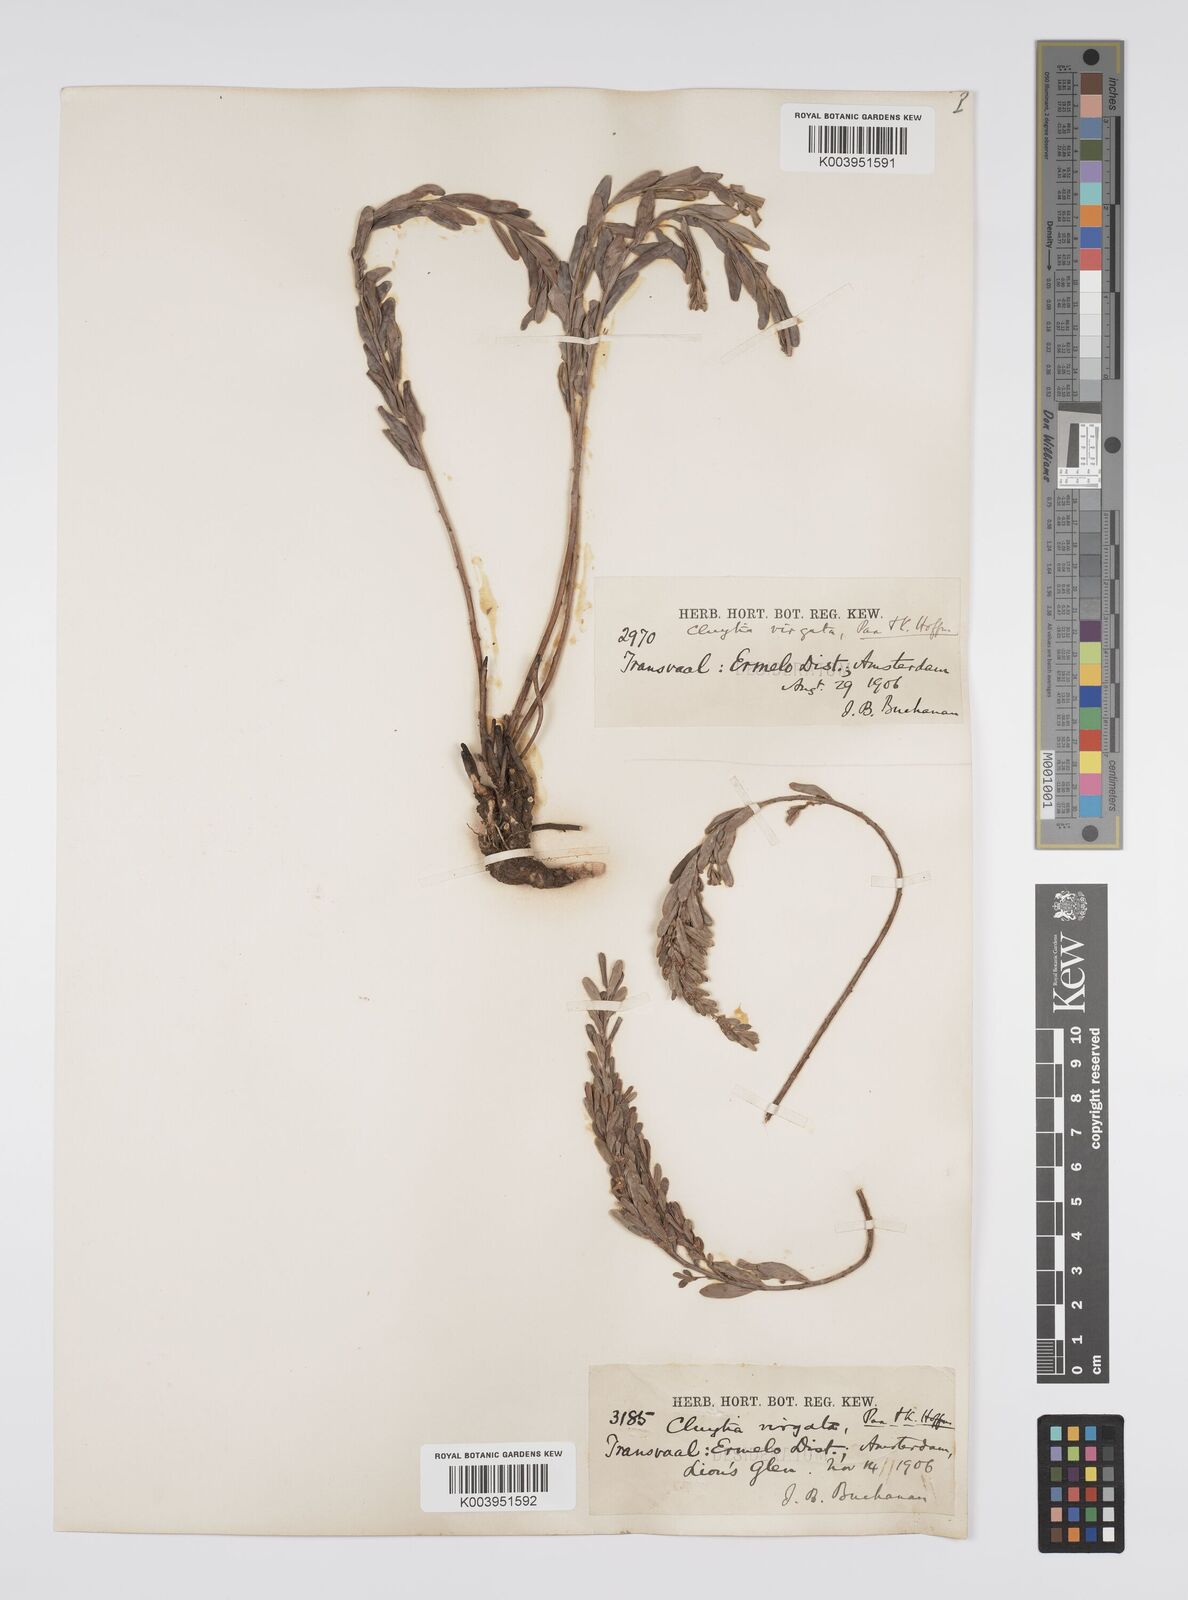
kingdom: Plantae
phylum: Tracheophyta
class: Magnoliopsida
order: Malpighiales
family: Peraceae
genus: Clutia
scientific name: Clutia virgata
